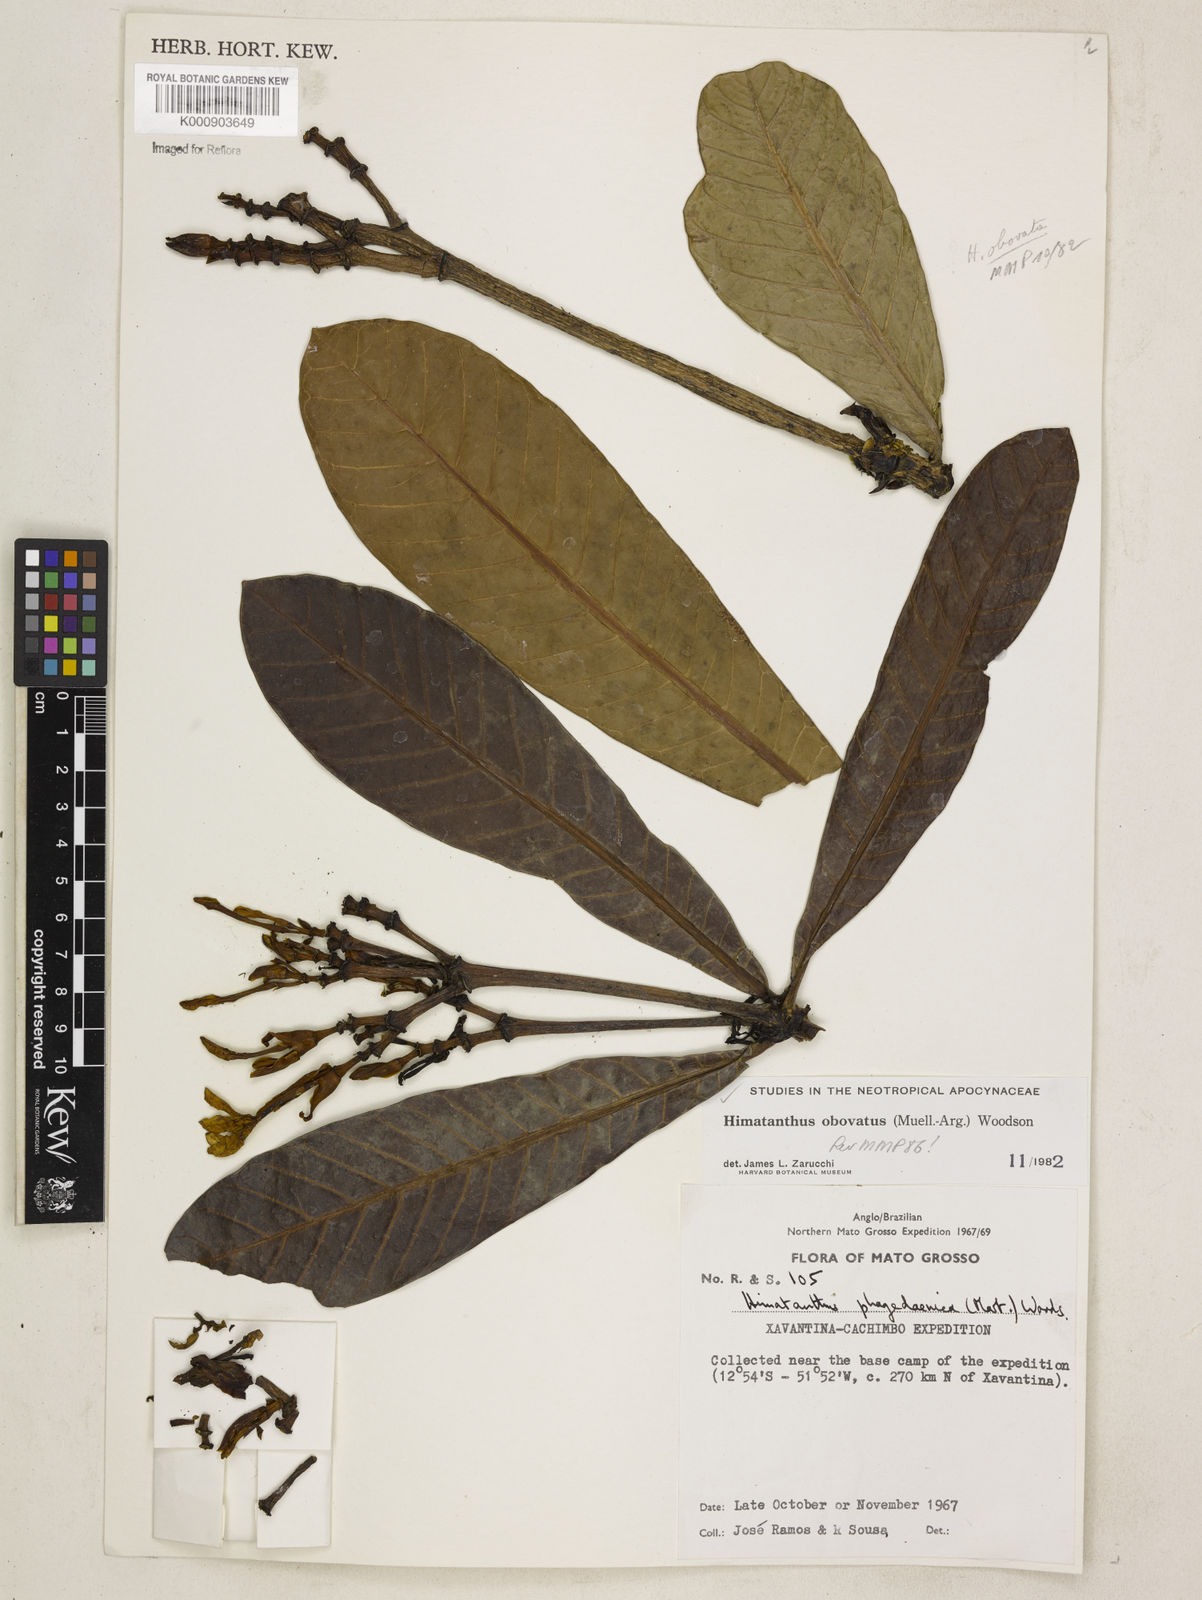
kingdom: Plantae
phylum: Tracheophyta
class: Magnoliopsida
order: Gentianales
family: Apocynaceae
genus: Himatanthus
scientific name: Himatanthus
